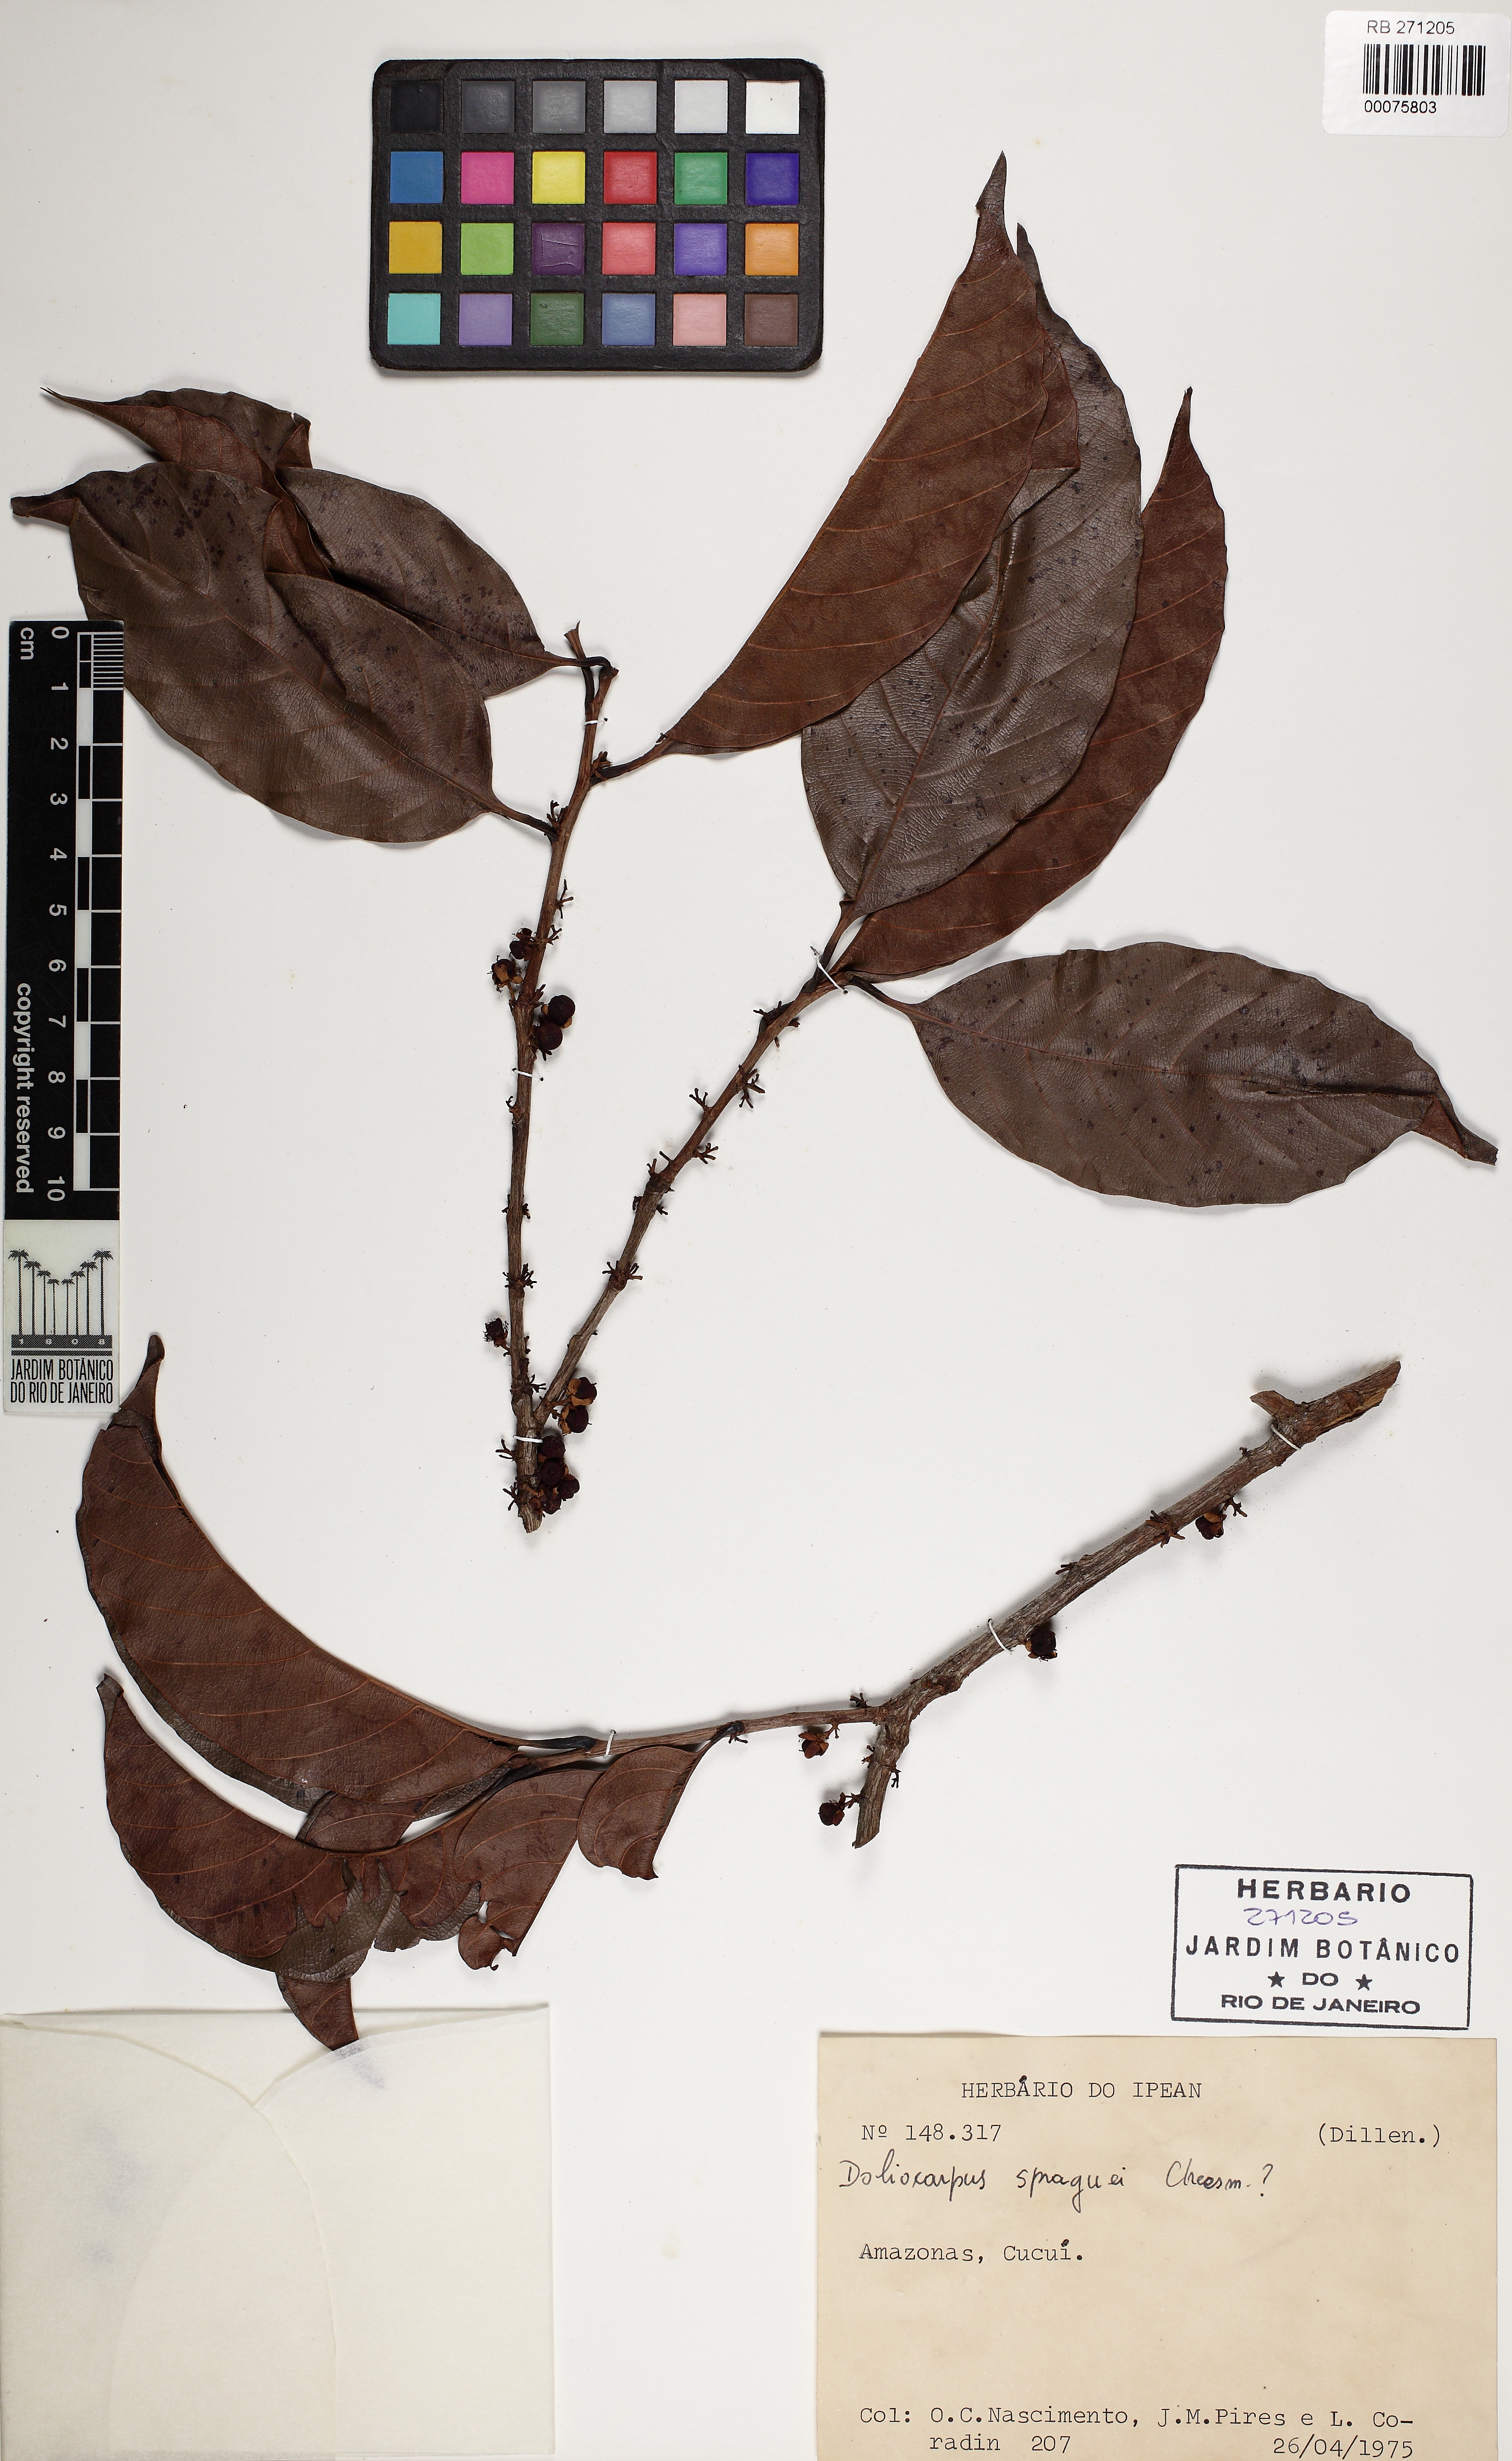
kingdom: Plantae
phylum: Tracheophyta
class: Magnoliopsida
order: Dilleniales
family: Dilleniaceae
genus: Doliocarpus
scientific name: Doliocarpus spraguei
